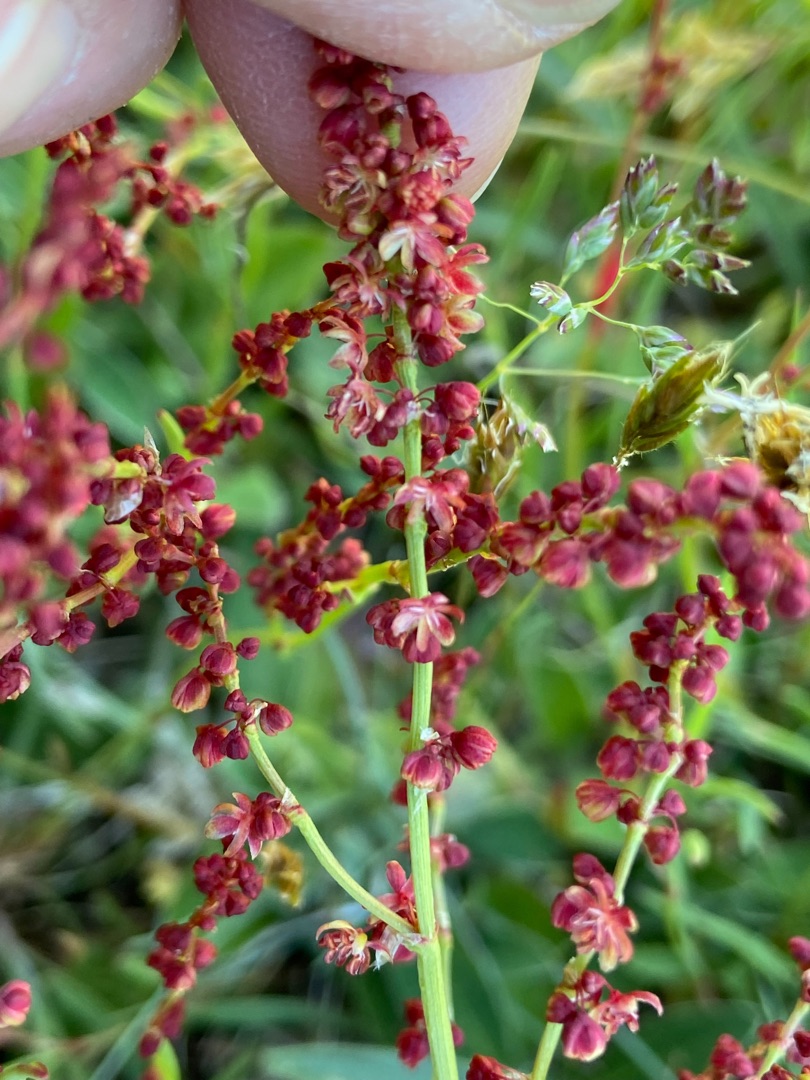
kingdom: Plantae
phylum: Tracheophyta
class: Magnoliopsida
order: Caryophyllales
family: Polygonaceae
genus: Rumex
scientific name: Rumex acetosella
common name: Rødknæ
